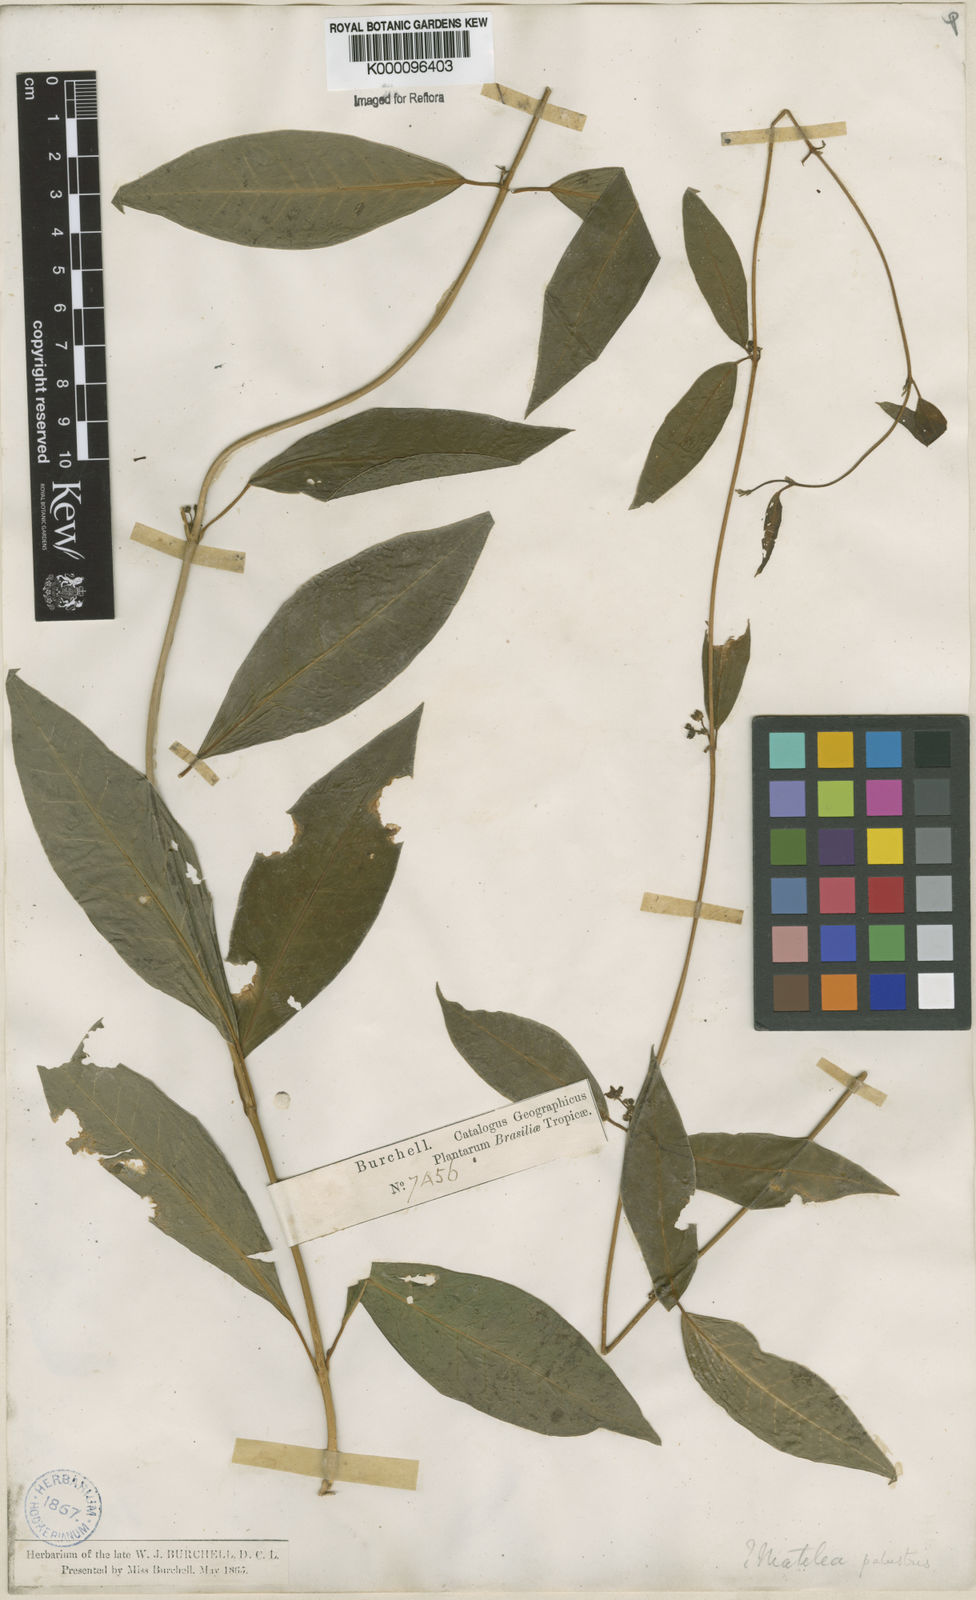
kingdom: Plantae
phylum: Tracheophyta
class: Magnoliopsida
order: Gentianales
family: Apocynaceae
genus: Matelea
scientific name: Matelea
